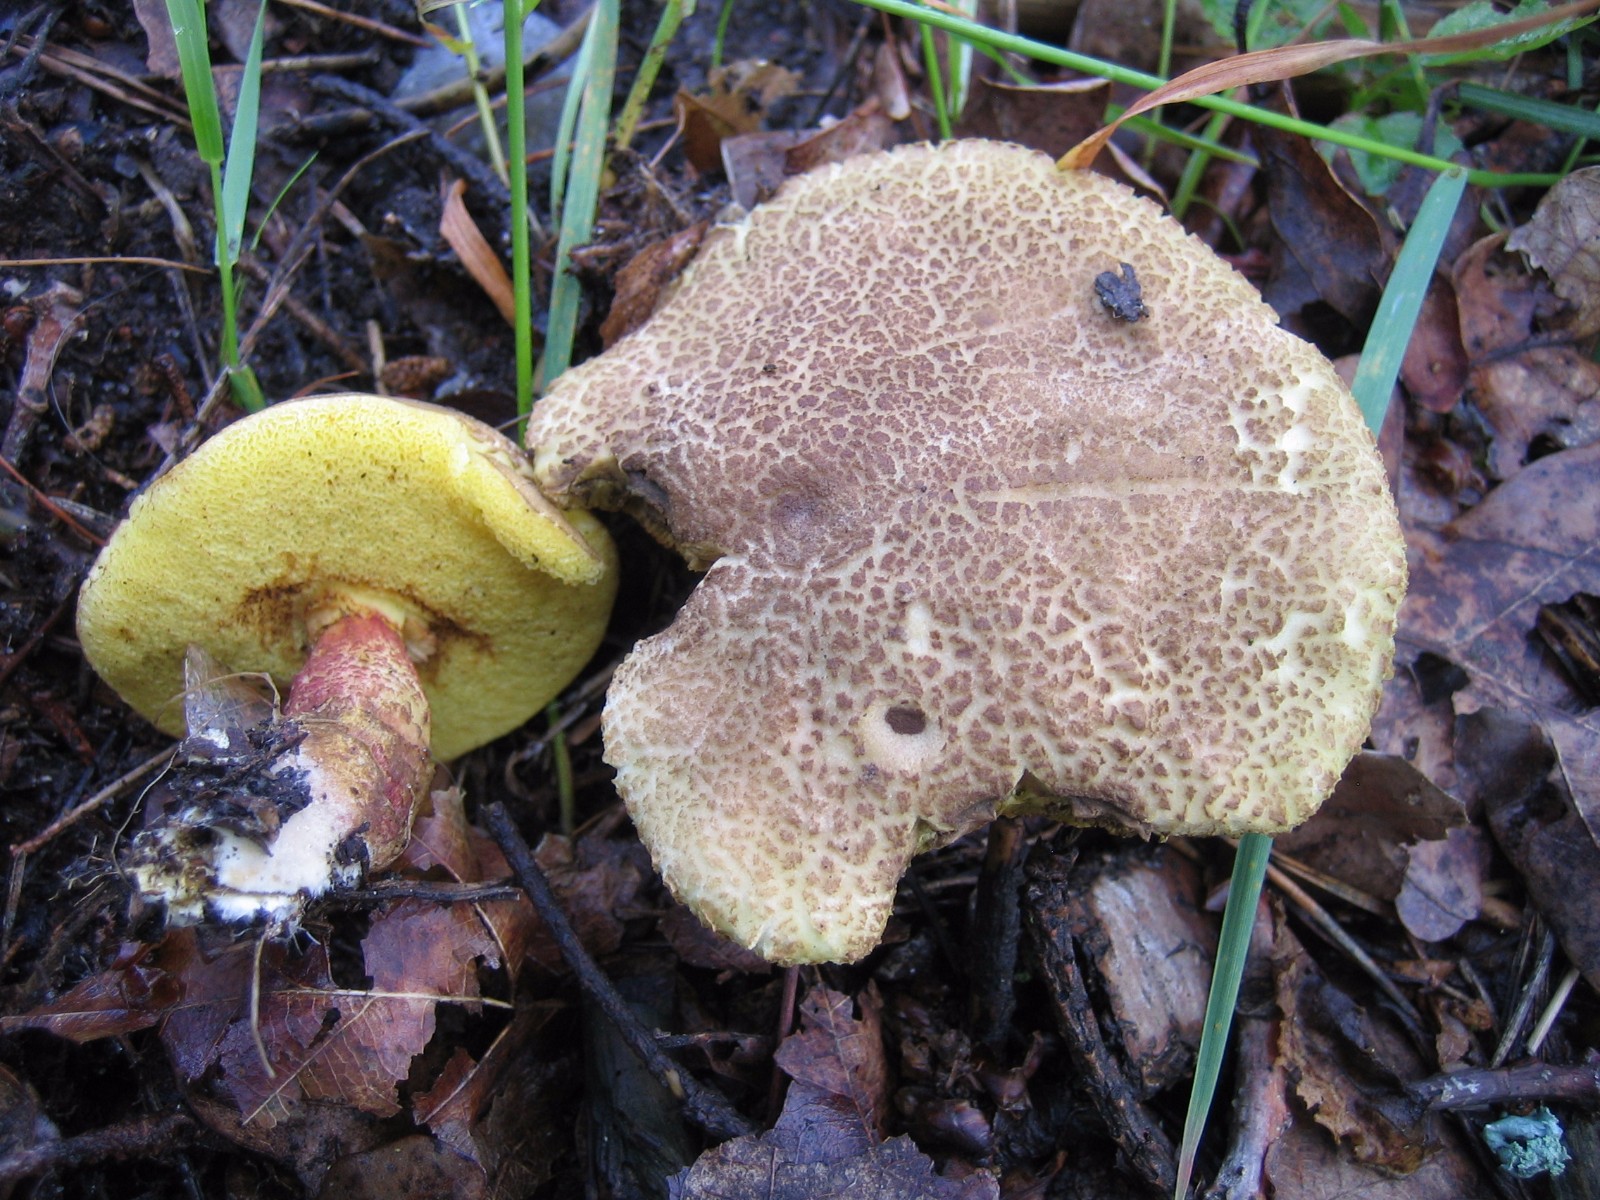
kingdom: Fungi
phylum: Basidiomycota
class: Agaricomycetes
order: Boletales
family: Boletaceae
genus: Xerocomellus
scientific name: Xerocomellus chrysenteron
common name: rødsprukken rørhat
